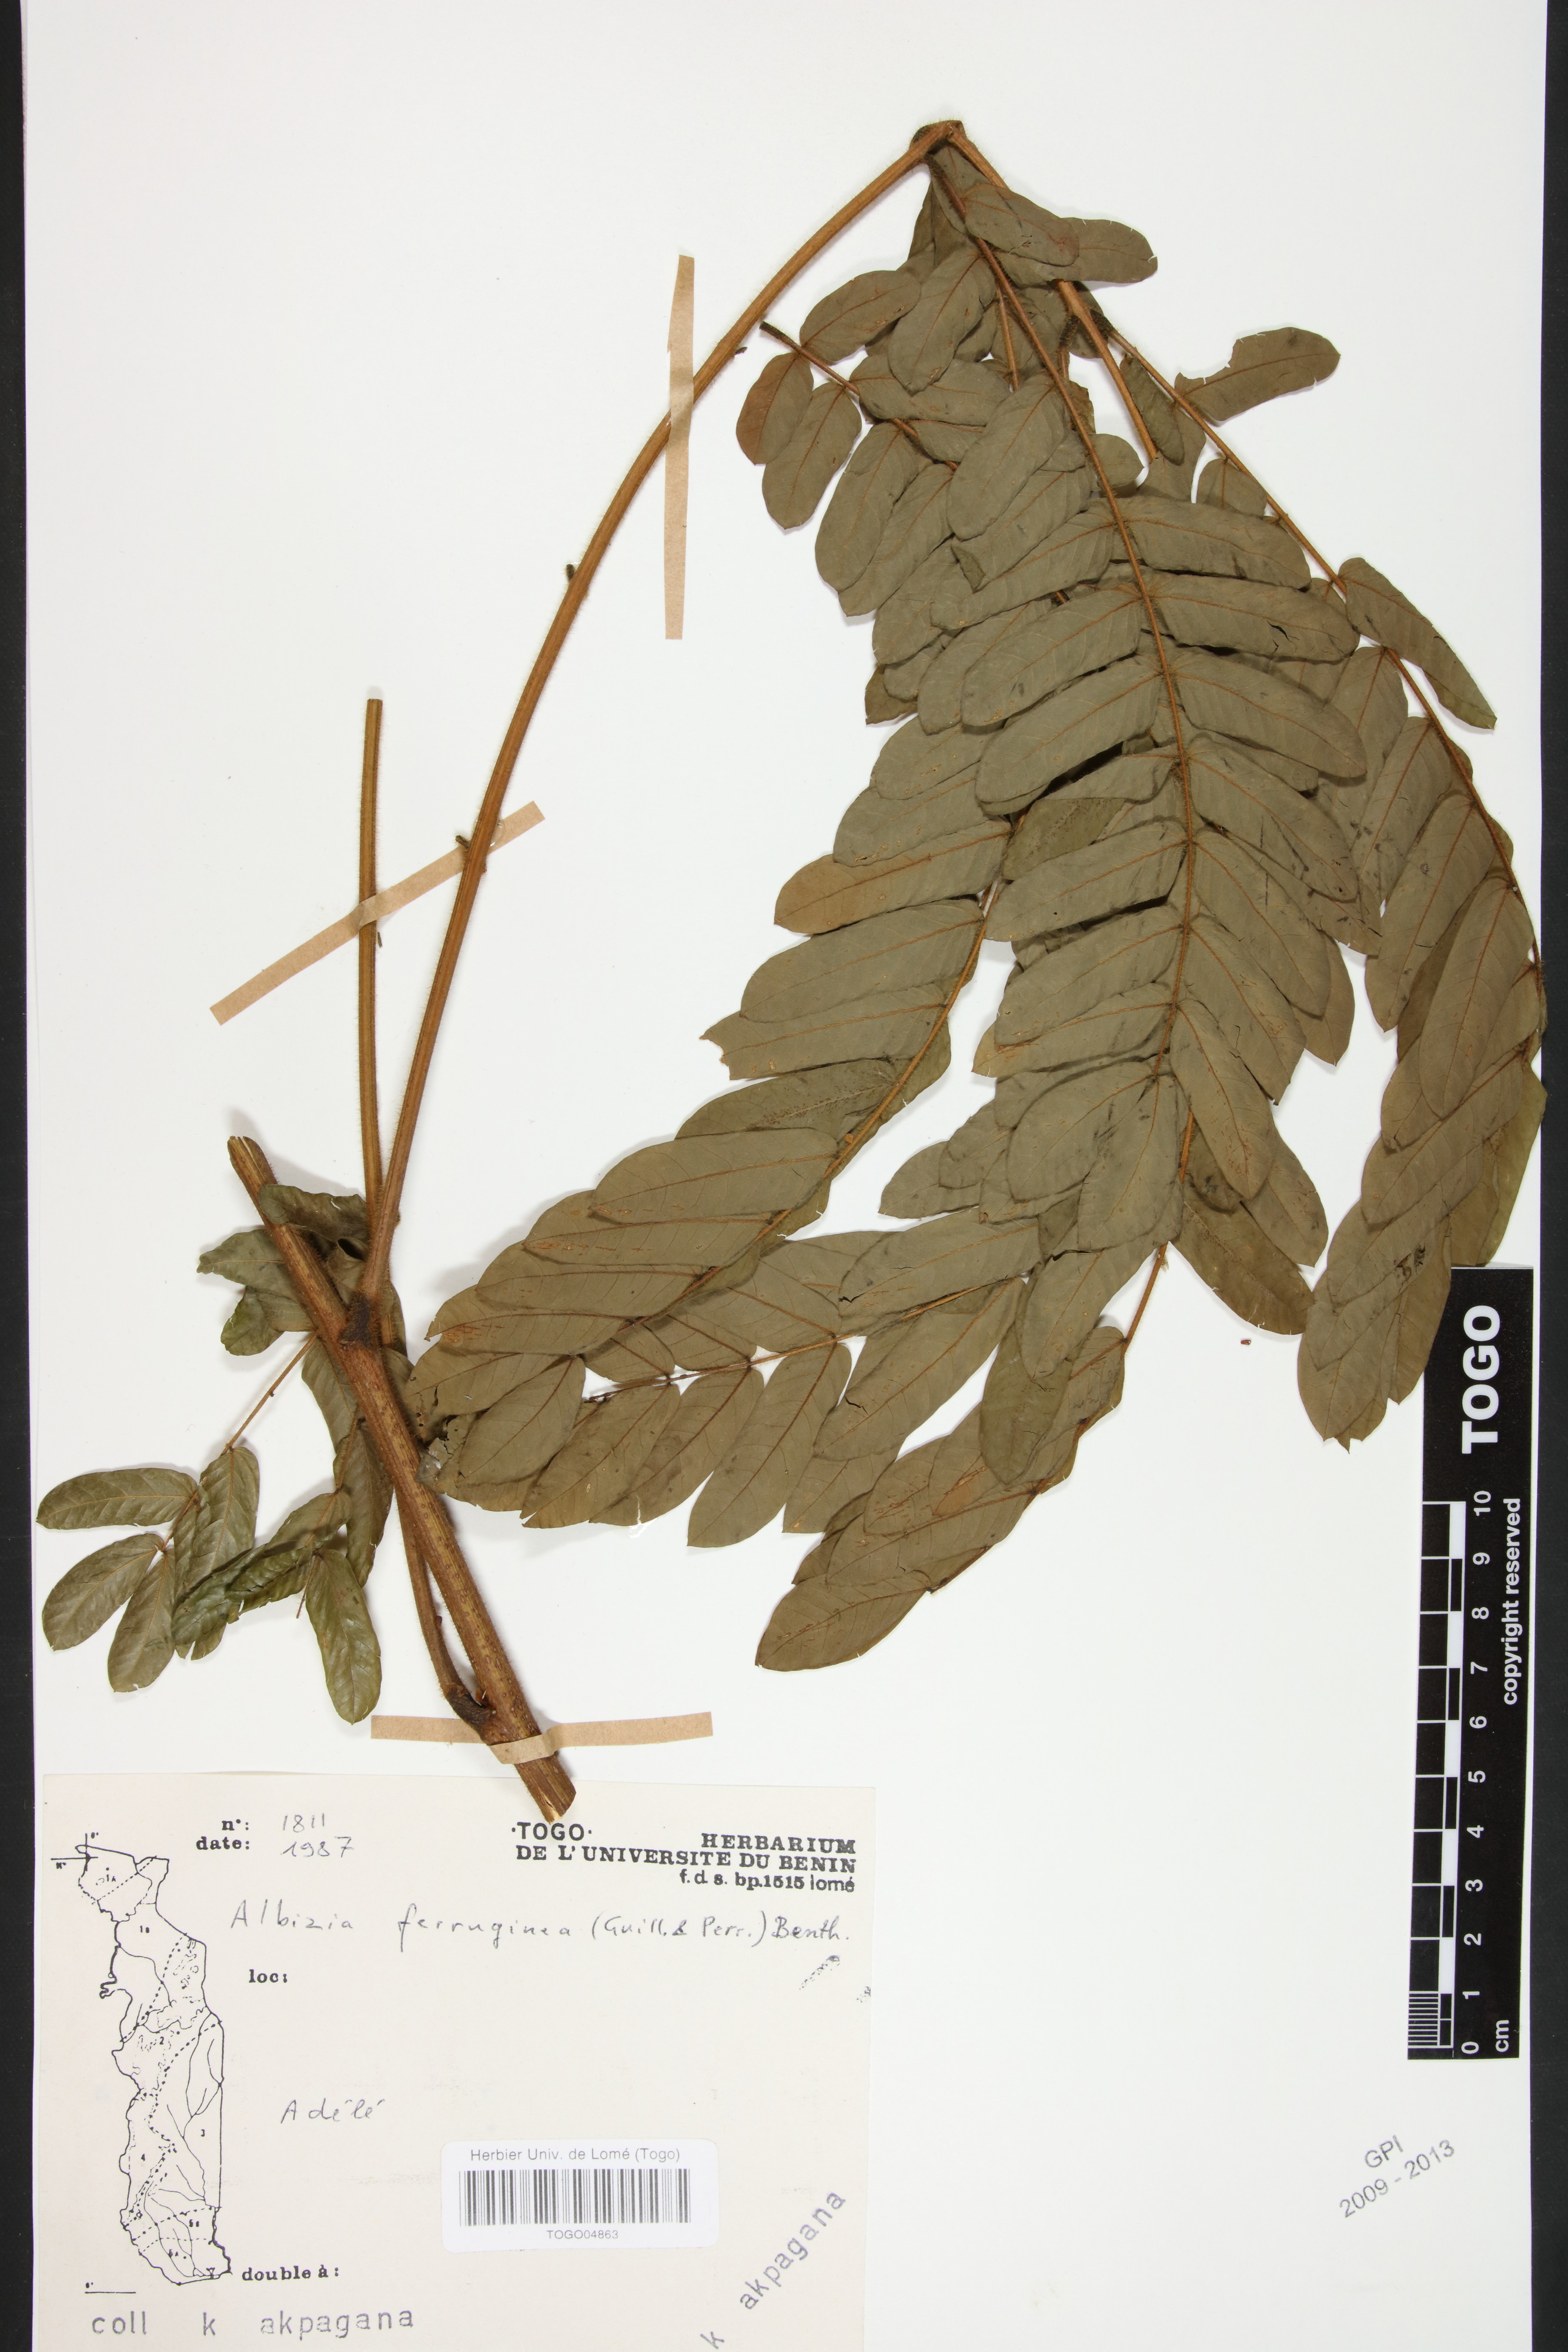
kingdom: Plantae
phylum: Tracheophyta
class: Magnoliopsida
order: Fabales
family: Fabaceae
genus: Albizia
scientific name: Albizia ferruginea
